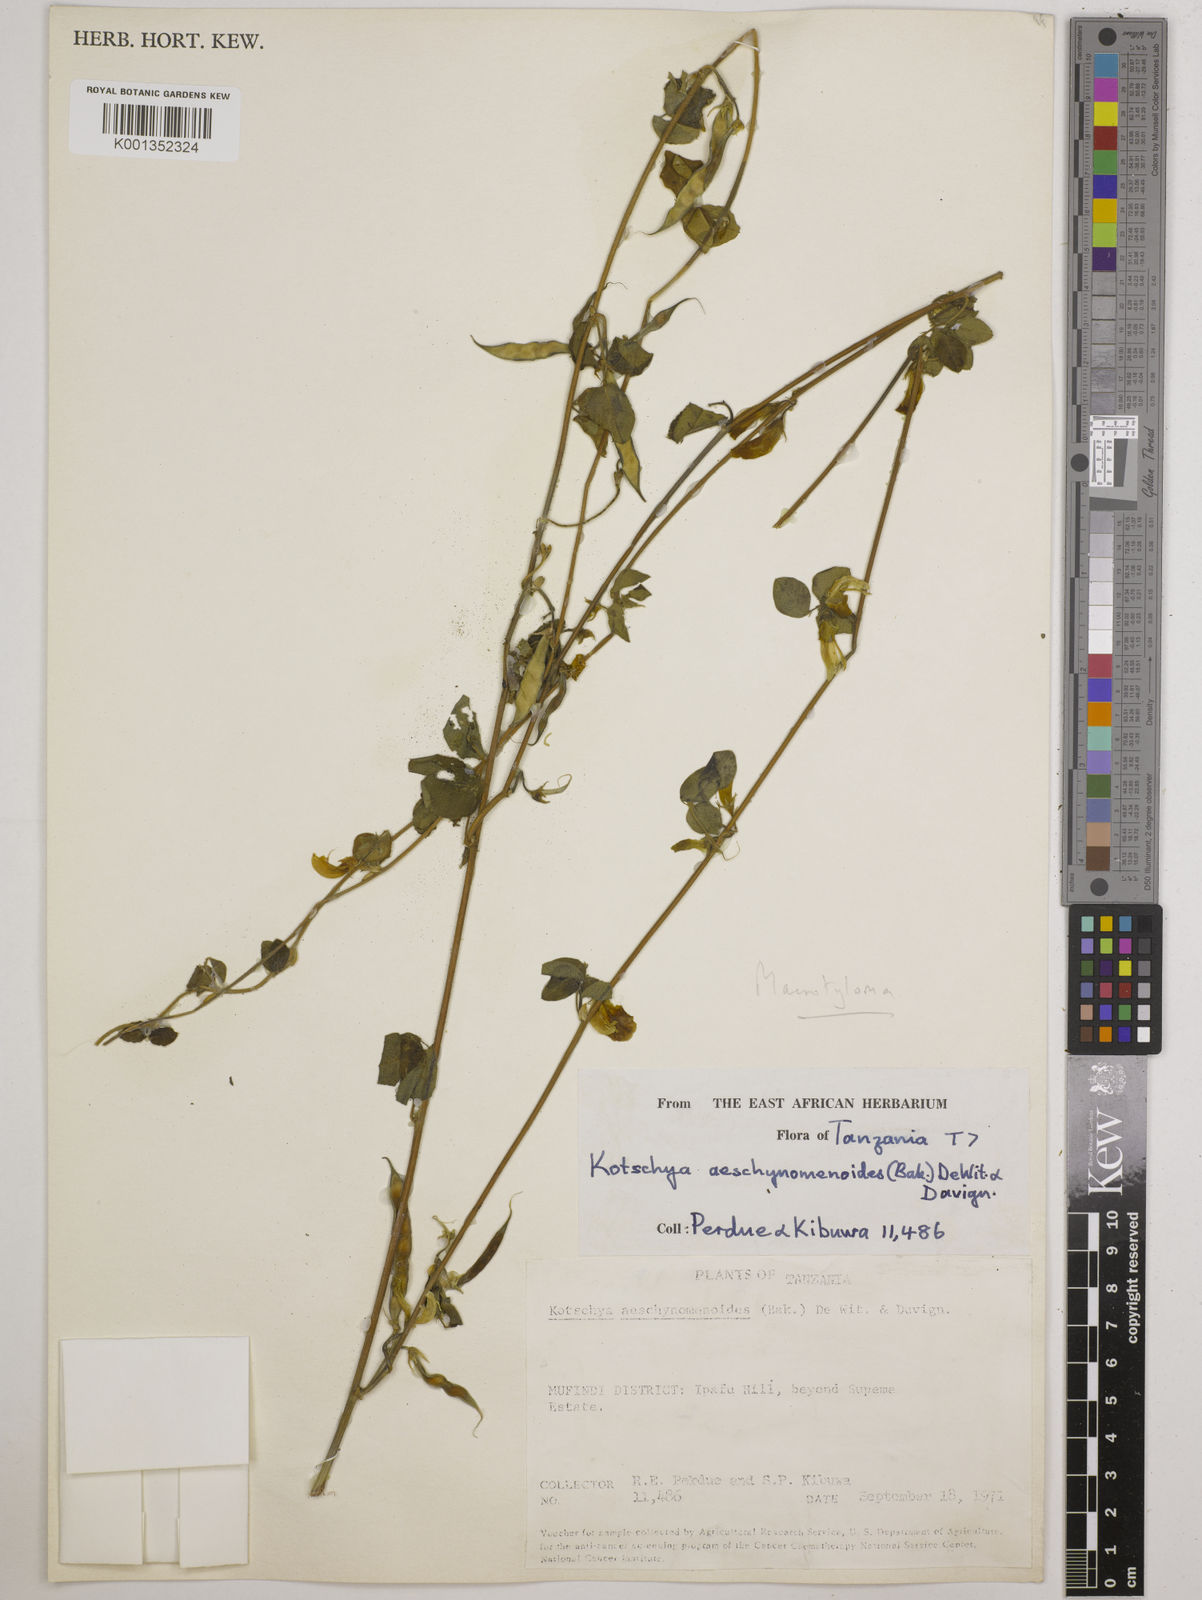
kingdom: Plantae
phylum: Tracheophyta
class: Magnoliopsida
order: Fabales
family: Fabaceae
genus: Macrotyloma
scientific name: Macrotyloma maranguense
